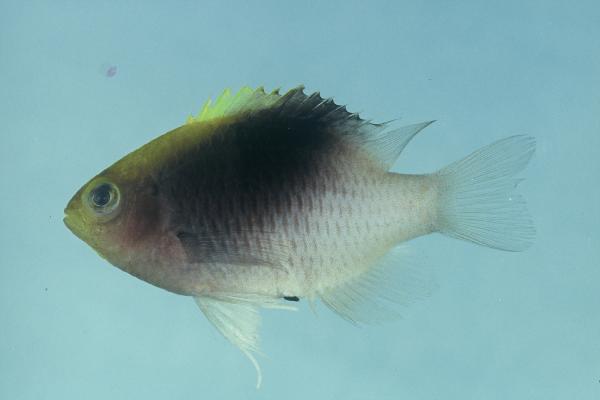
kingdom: Animalia
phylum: Chordata
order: Perciformes
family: Pomacentridae
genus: Chrysiptera
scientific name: Chrysiptera rollandi
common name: Rolland's demoiselle
